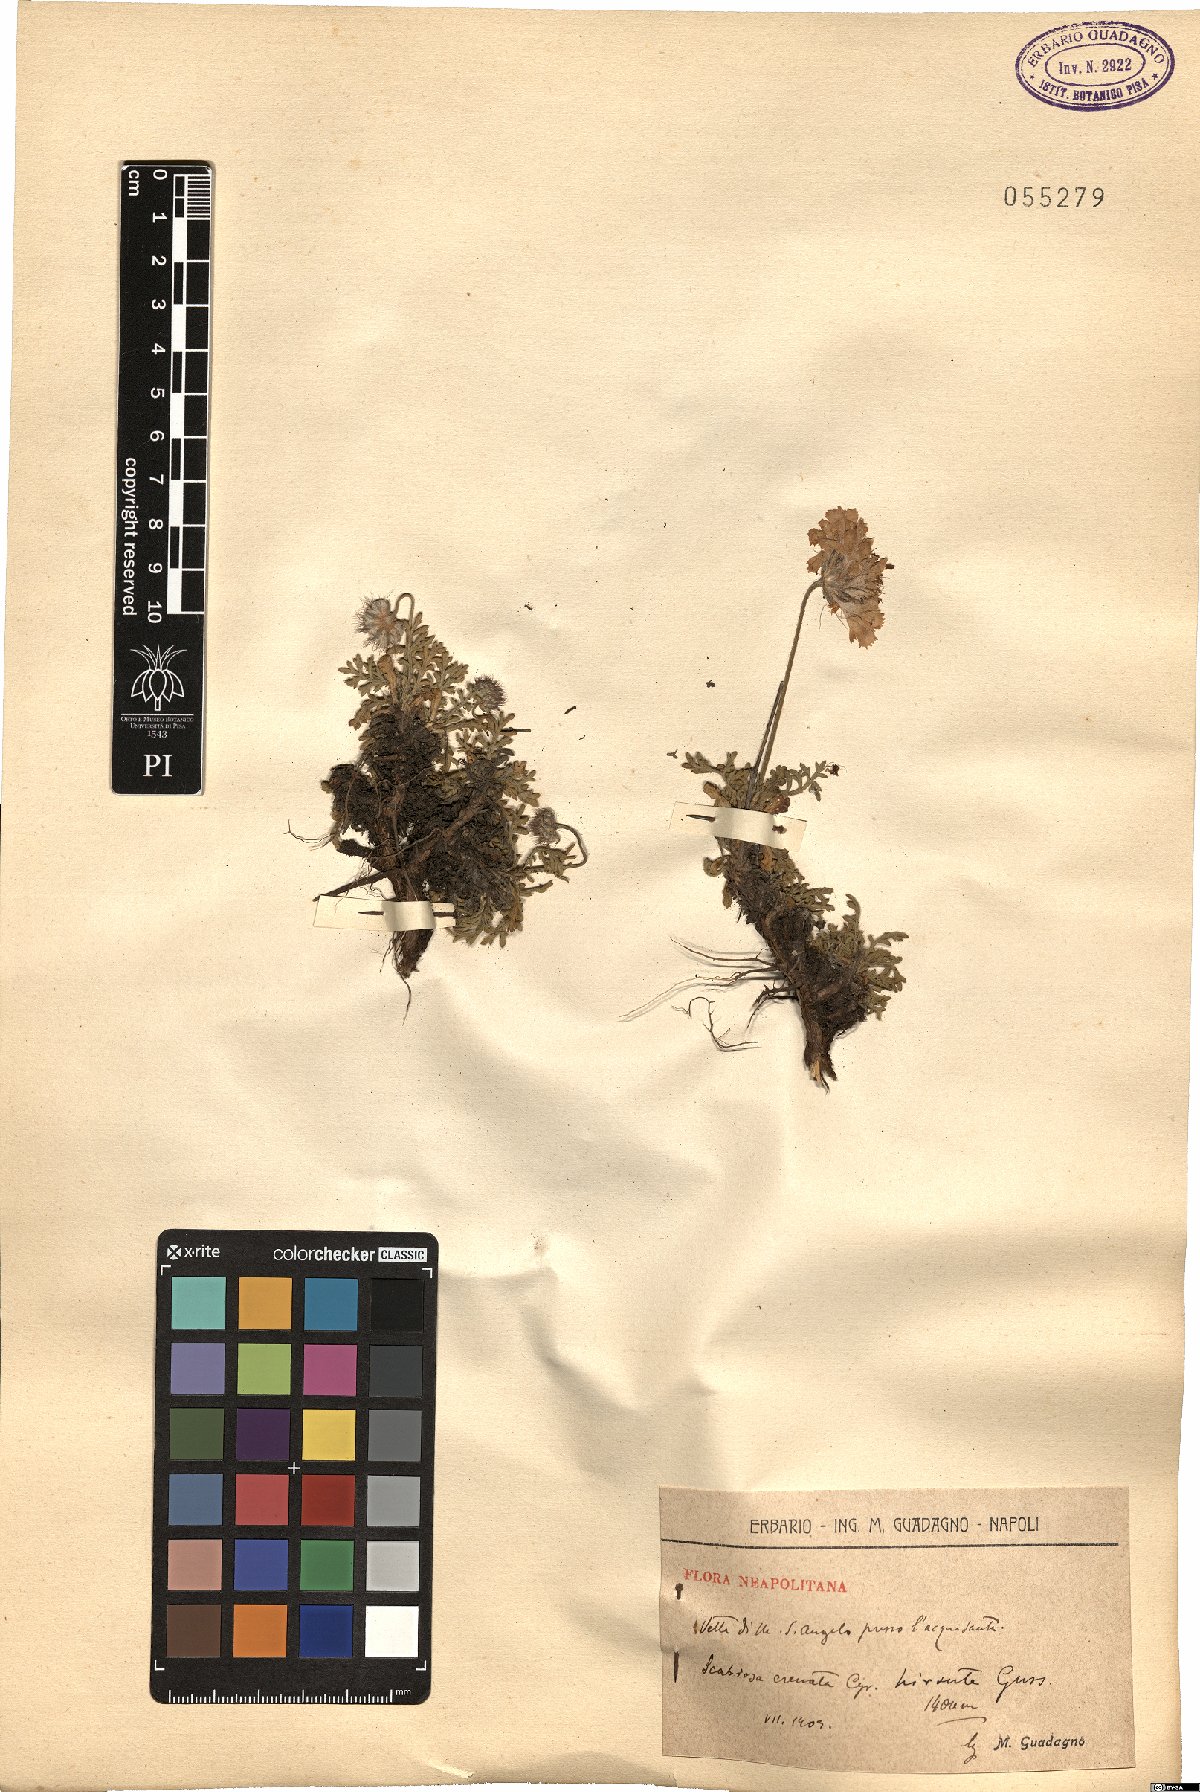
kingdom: Plantae
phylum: Tracheophyta
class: Magnoliopsida
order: Dipsacales
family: Caprifoliaceae
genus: Lomelosia
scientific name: Lomelosia crenata
